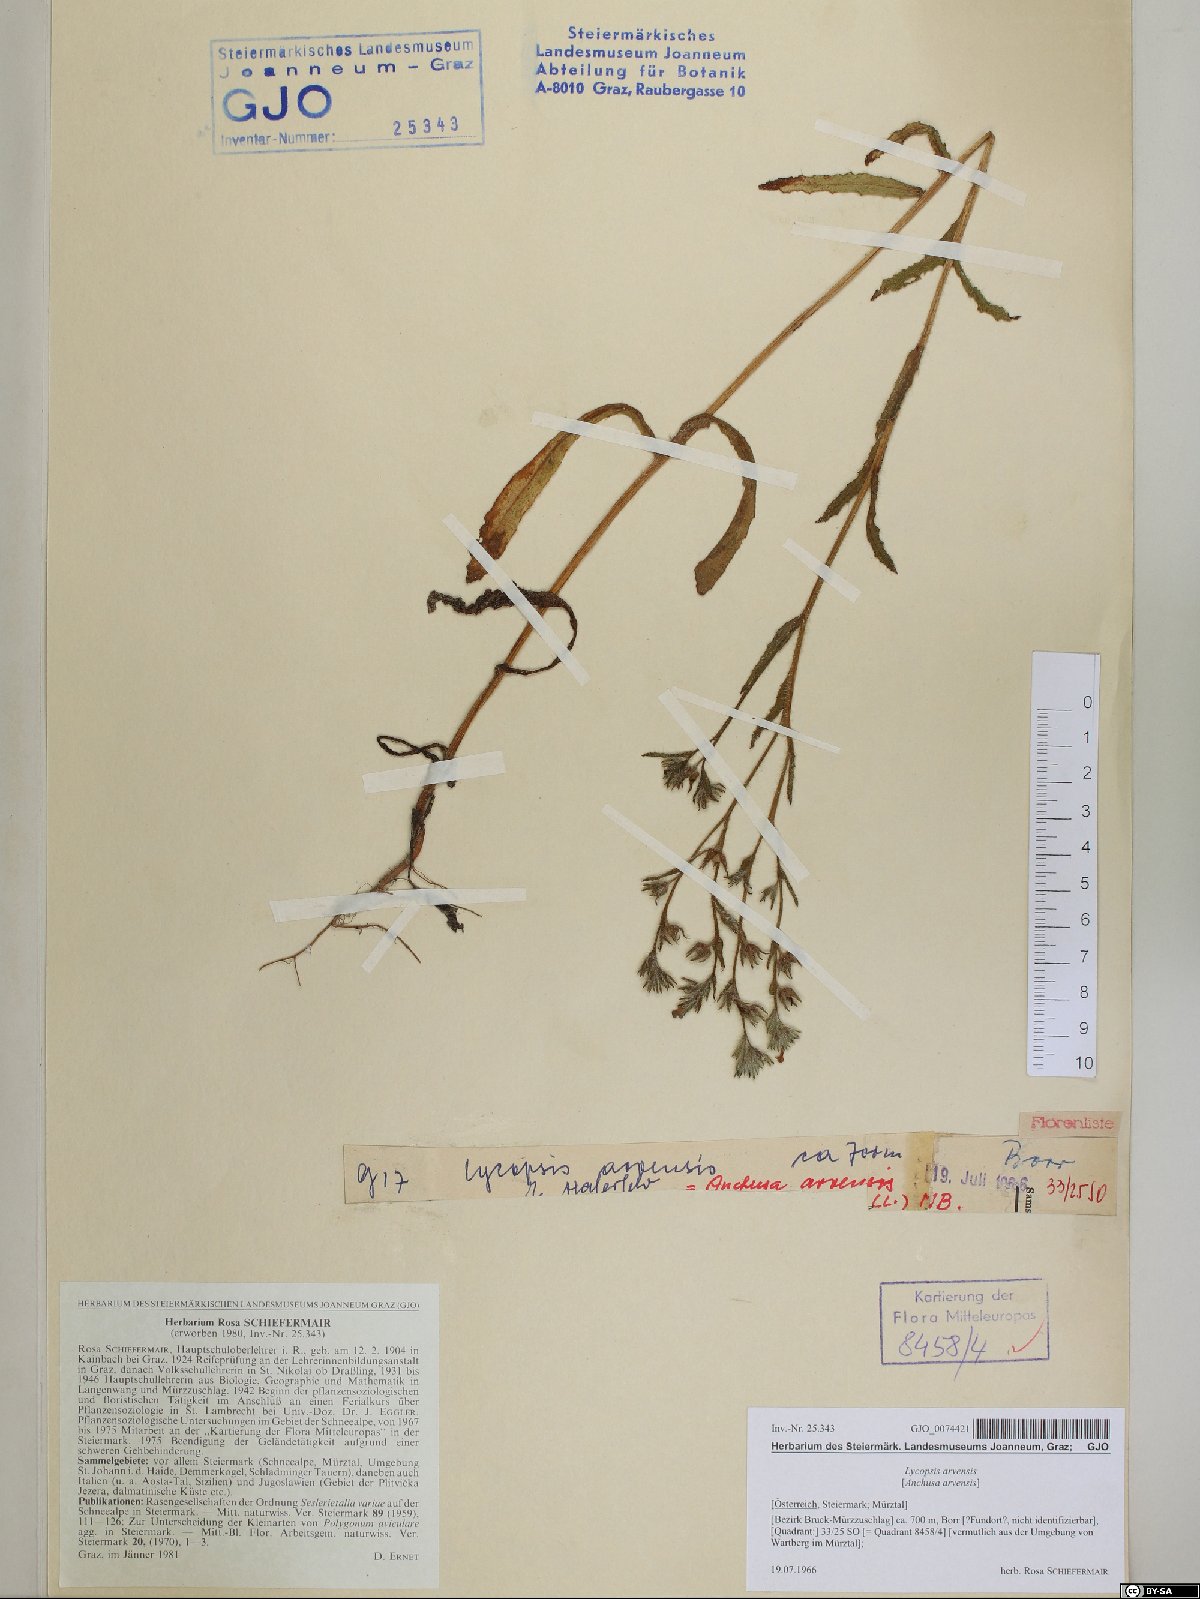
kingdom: Plantae
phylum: Tracheophyta
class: Magnoliopsida
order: Boraginales
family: Boraginaceae
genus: Lycopsis
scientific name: Lycopsis arvensis
